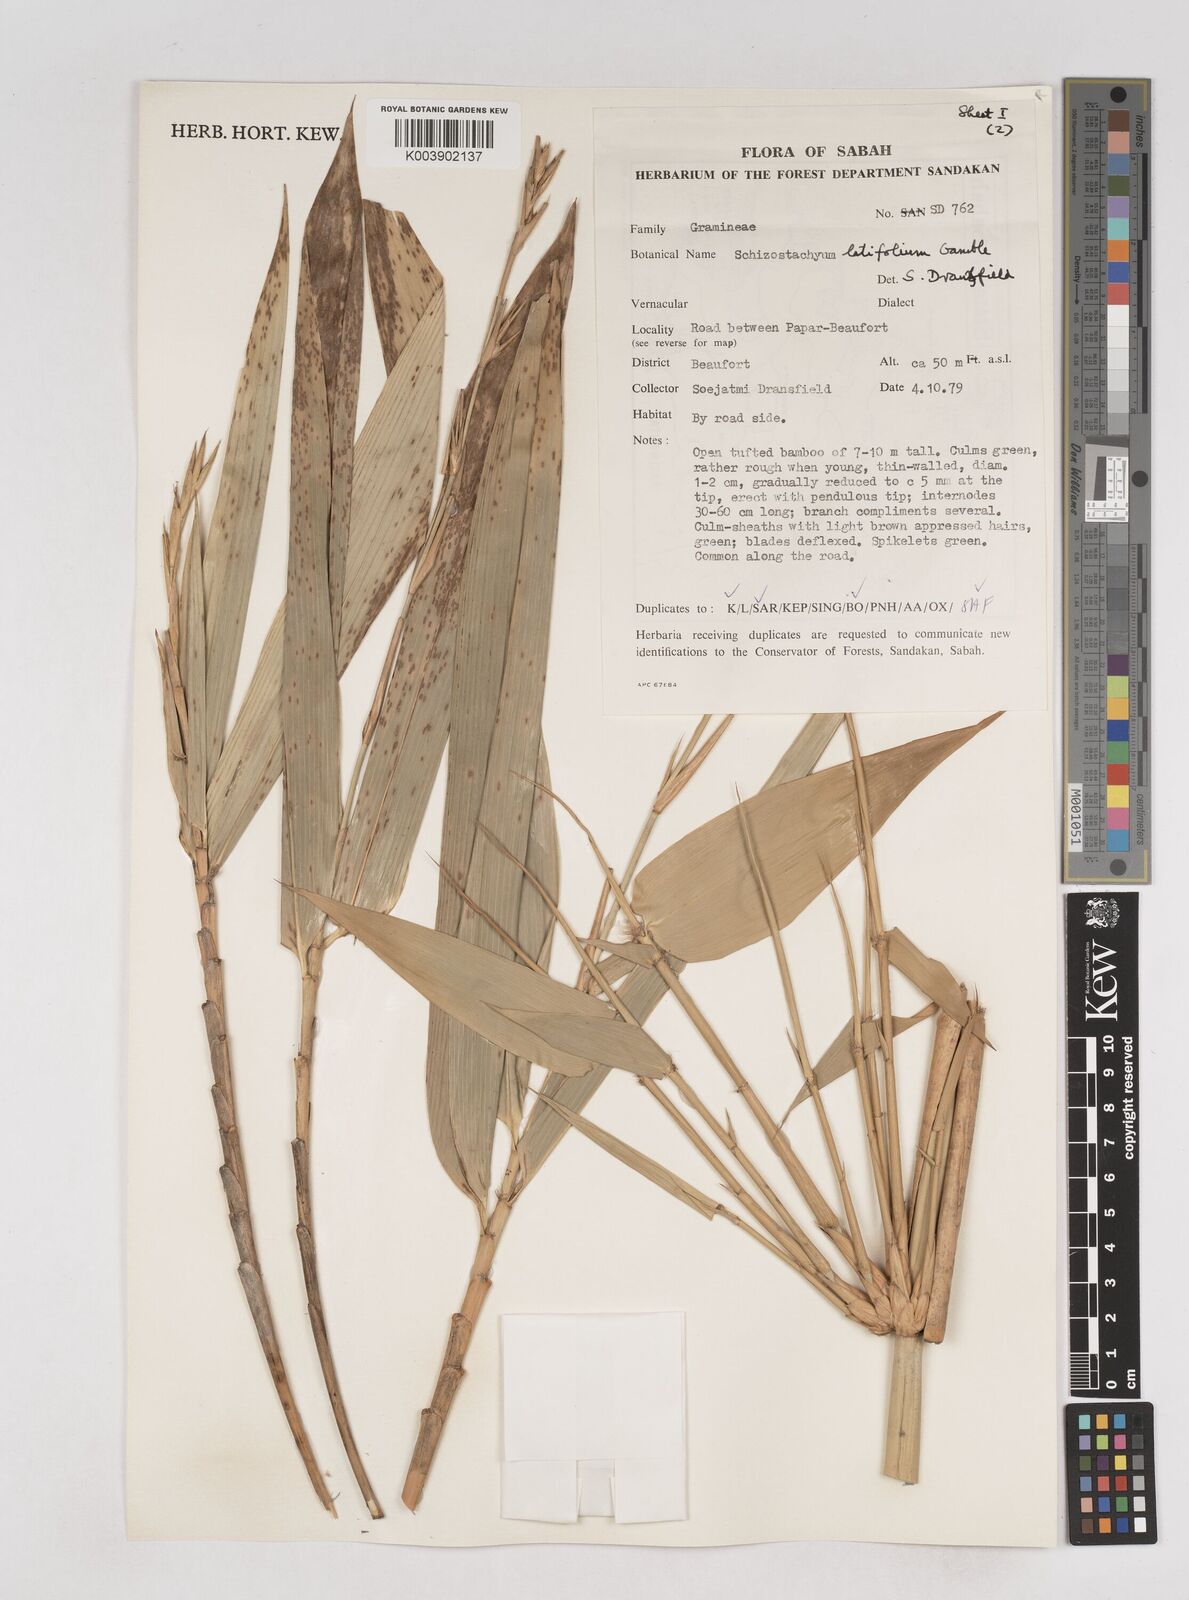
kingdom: Plantae
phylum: Tracheophyta
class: Liliopsida
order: Poales
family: Poaceae
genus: Schizostachyum
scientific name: Schizostachyum
